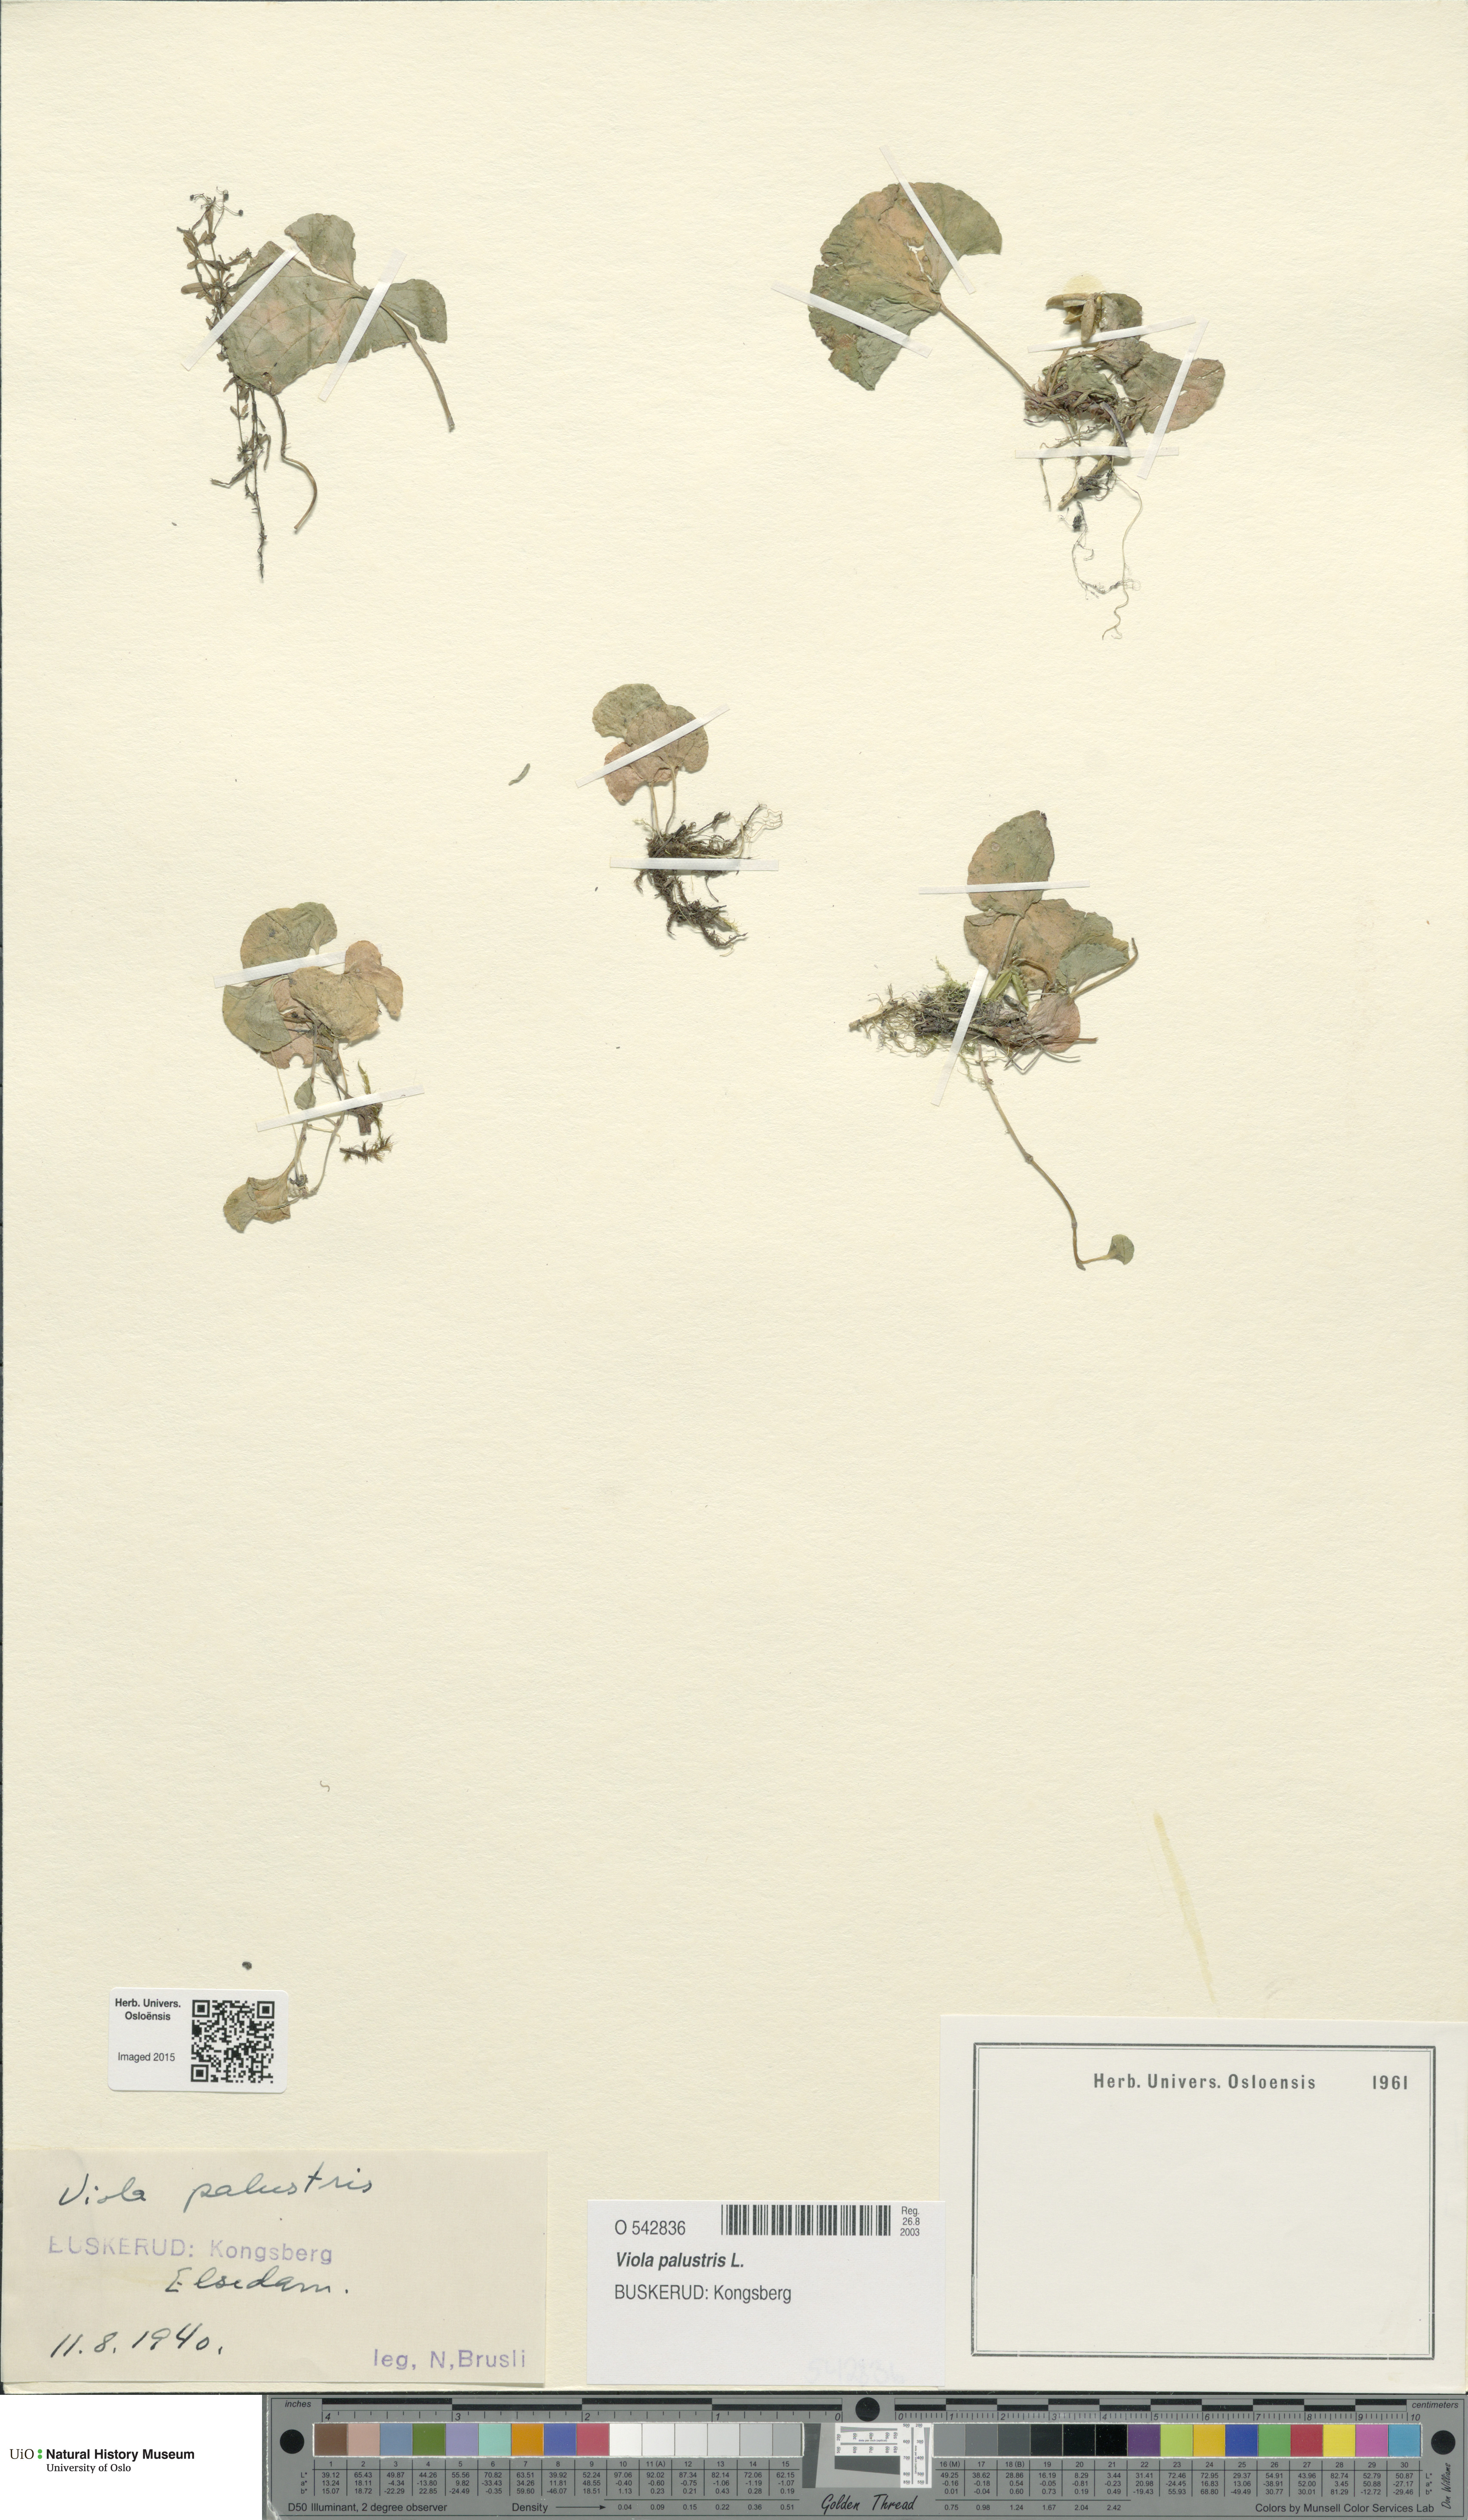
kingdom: Plantae
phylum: Tracheophyta
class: Magnoliopsida
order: Malpighiales
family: Violaceae
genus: Viola
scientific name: Viola palustris
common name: Marsh violet
